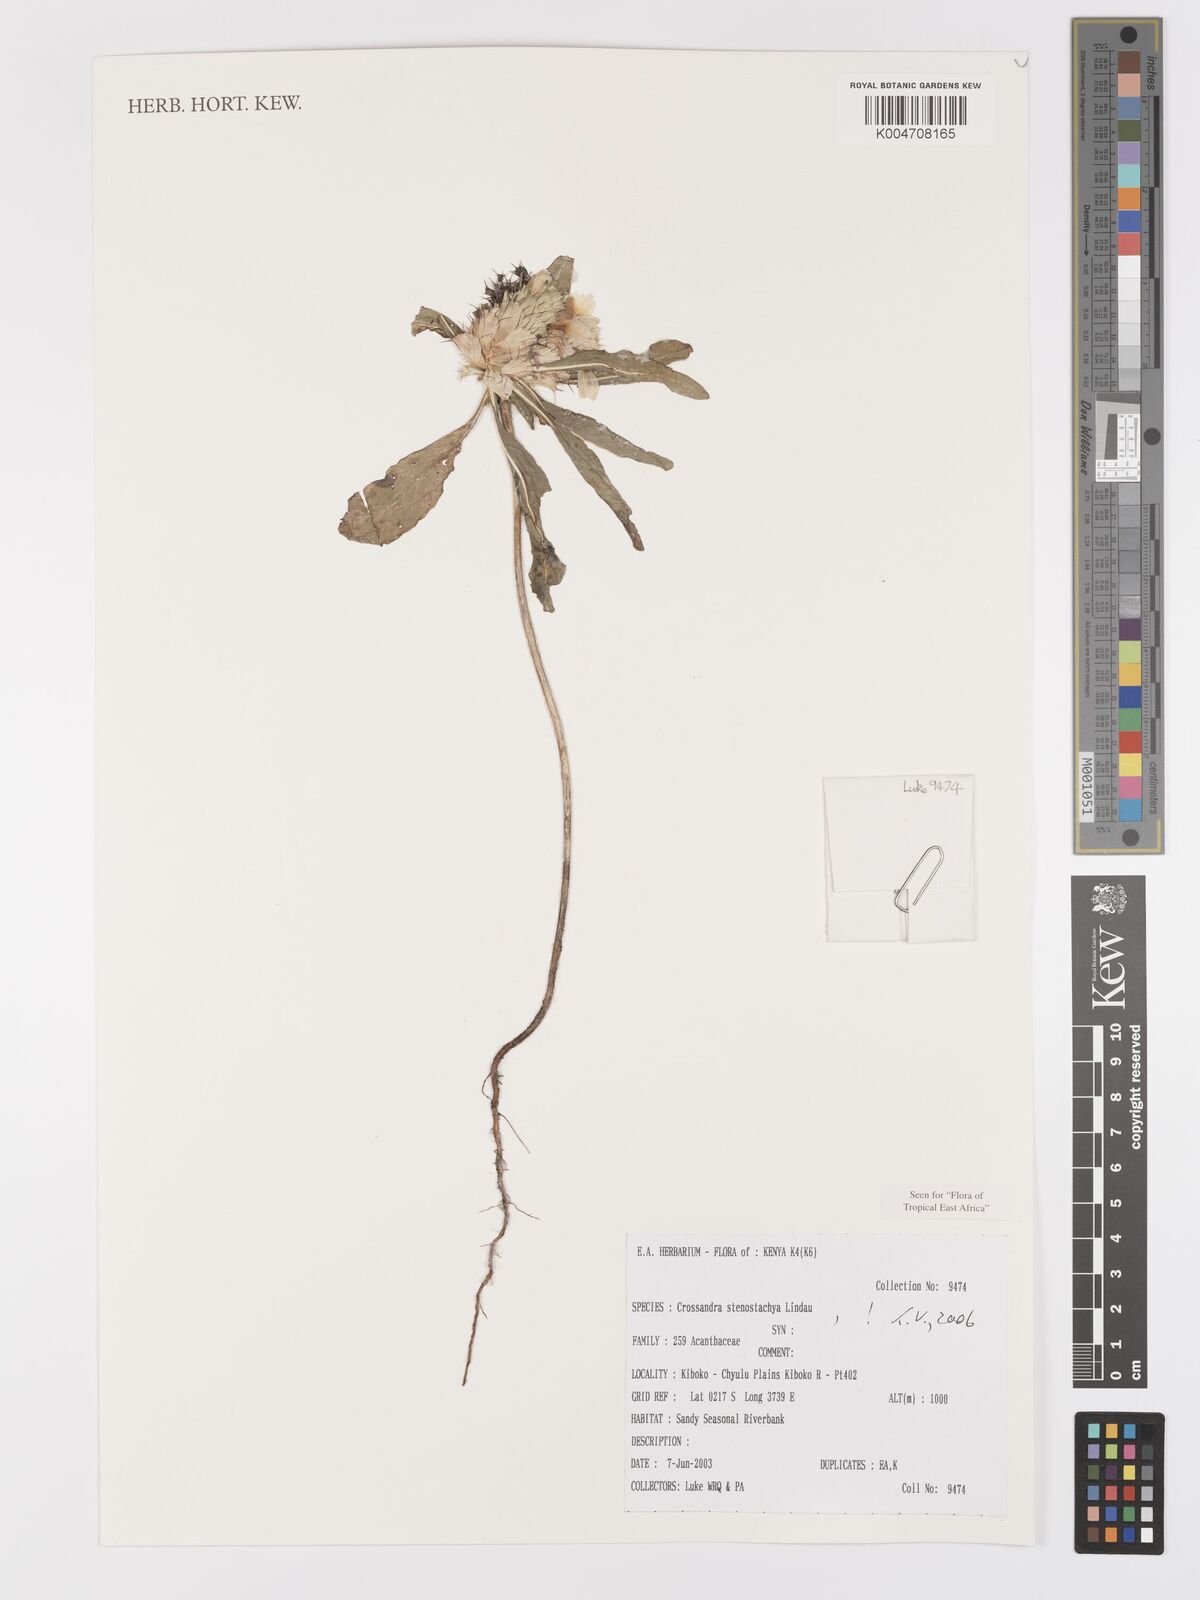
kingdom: Plantae
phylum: Tracheophyta
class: Magnoliopsida
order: Lamiales
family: Acanthaceae
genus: Crossandra
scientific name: Crossandra stenostachya
